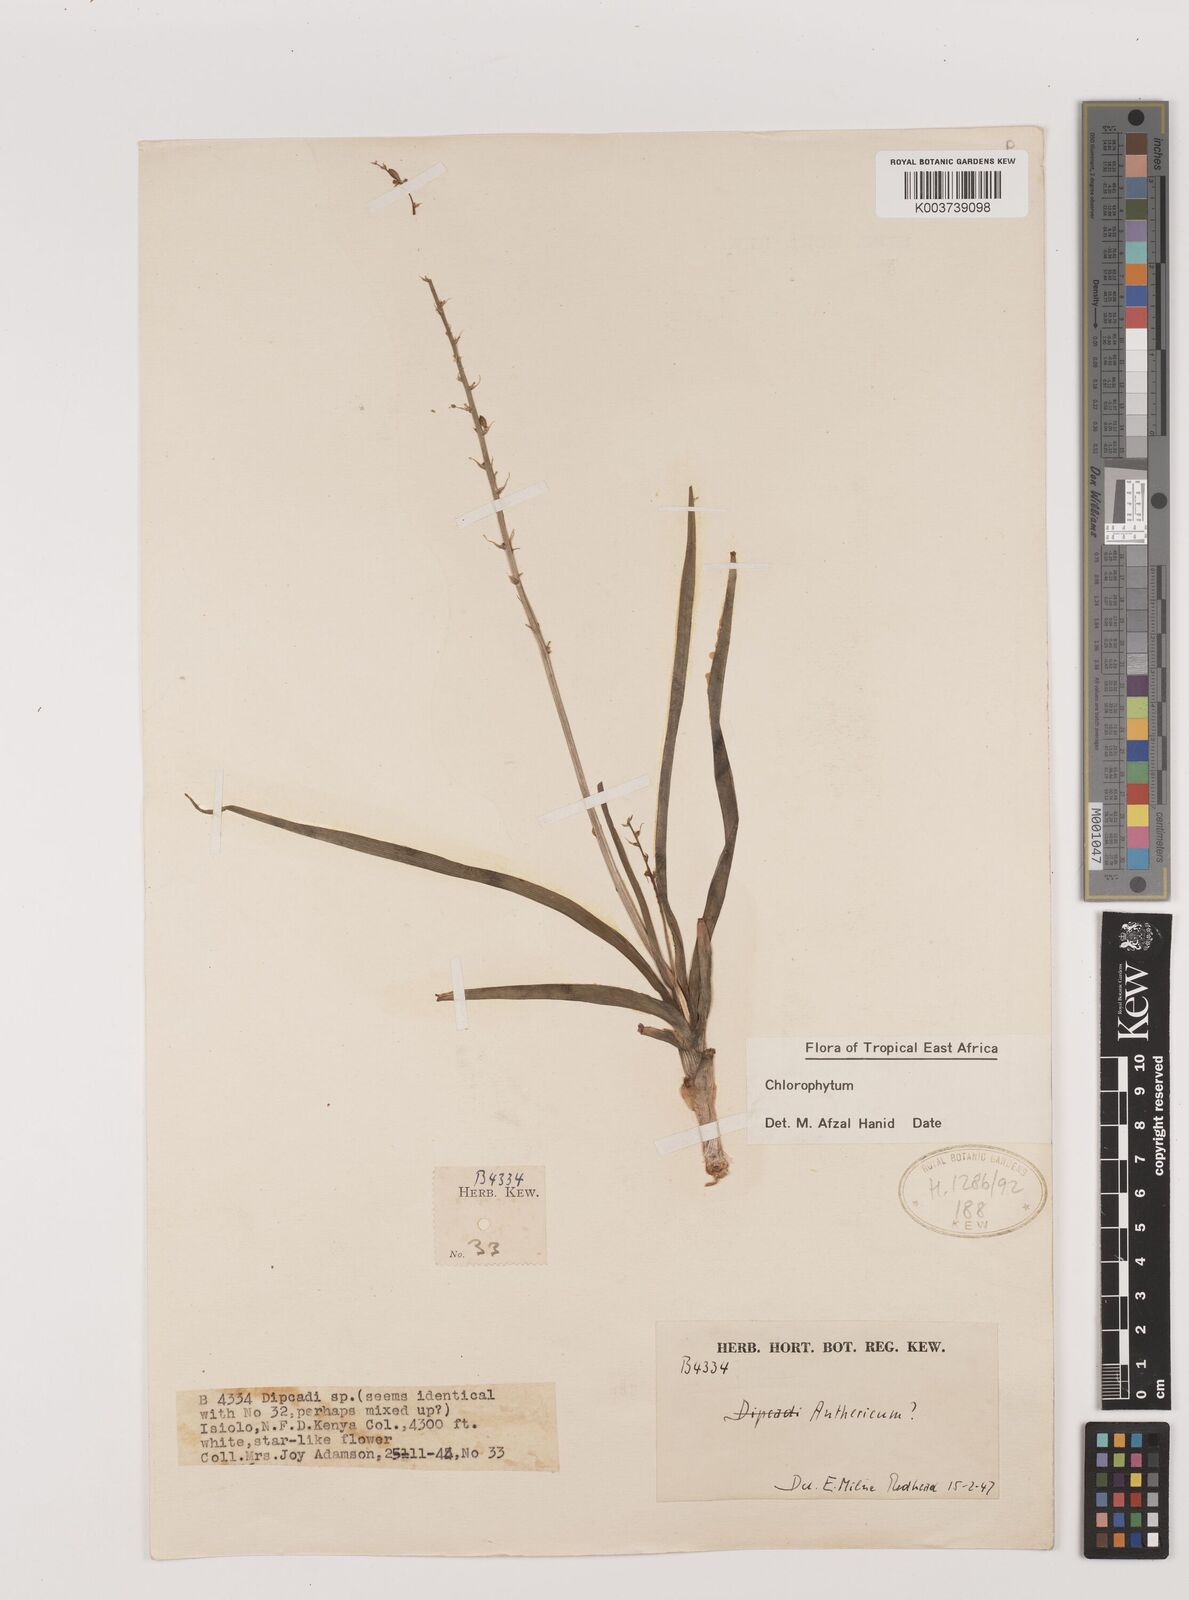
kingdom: Plantae
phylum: Tracheophyta
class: Liliopsida
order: Asparagales
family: Asparagaceae
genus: Chlorophytum
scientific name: Chlorophytum
